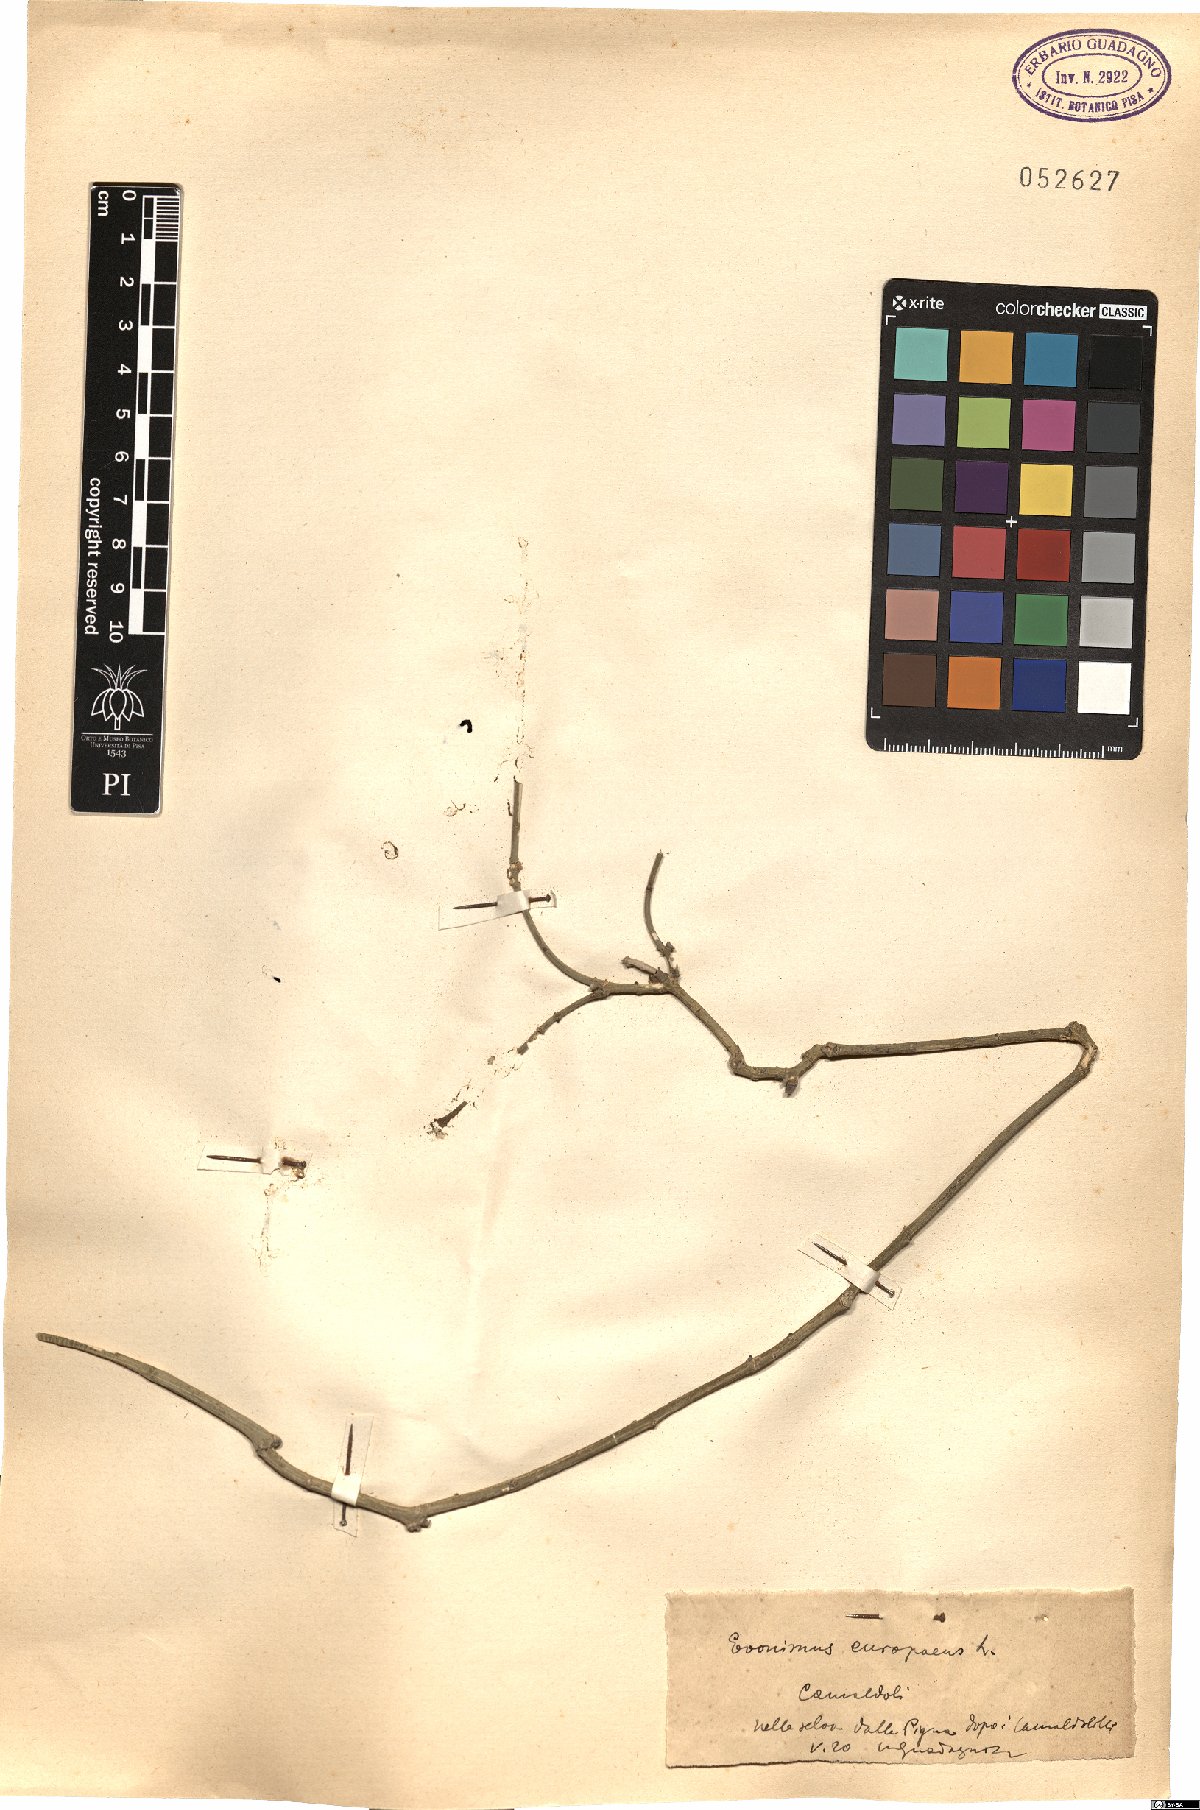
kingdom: Plantae
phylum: Tracheophyta
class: Magnoliopsida
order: Celastrales
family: Celastraceae
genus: Euonymus
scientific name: Euonymus europaeus
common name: Spindle
